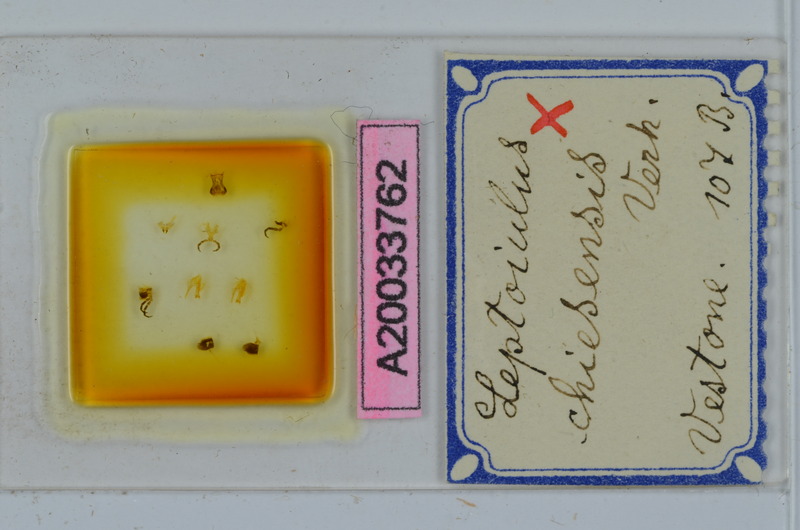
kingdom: Animalia
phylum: Arthropoda
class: Diplopoda
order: Julida
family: Julidae
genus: Leptoiulus
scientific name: Leptoiulus chiesensis
